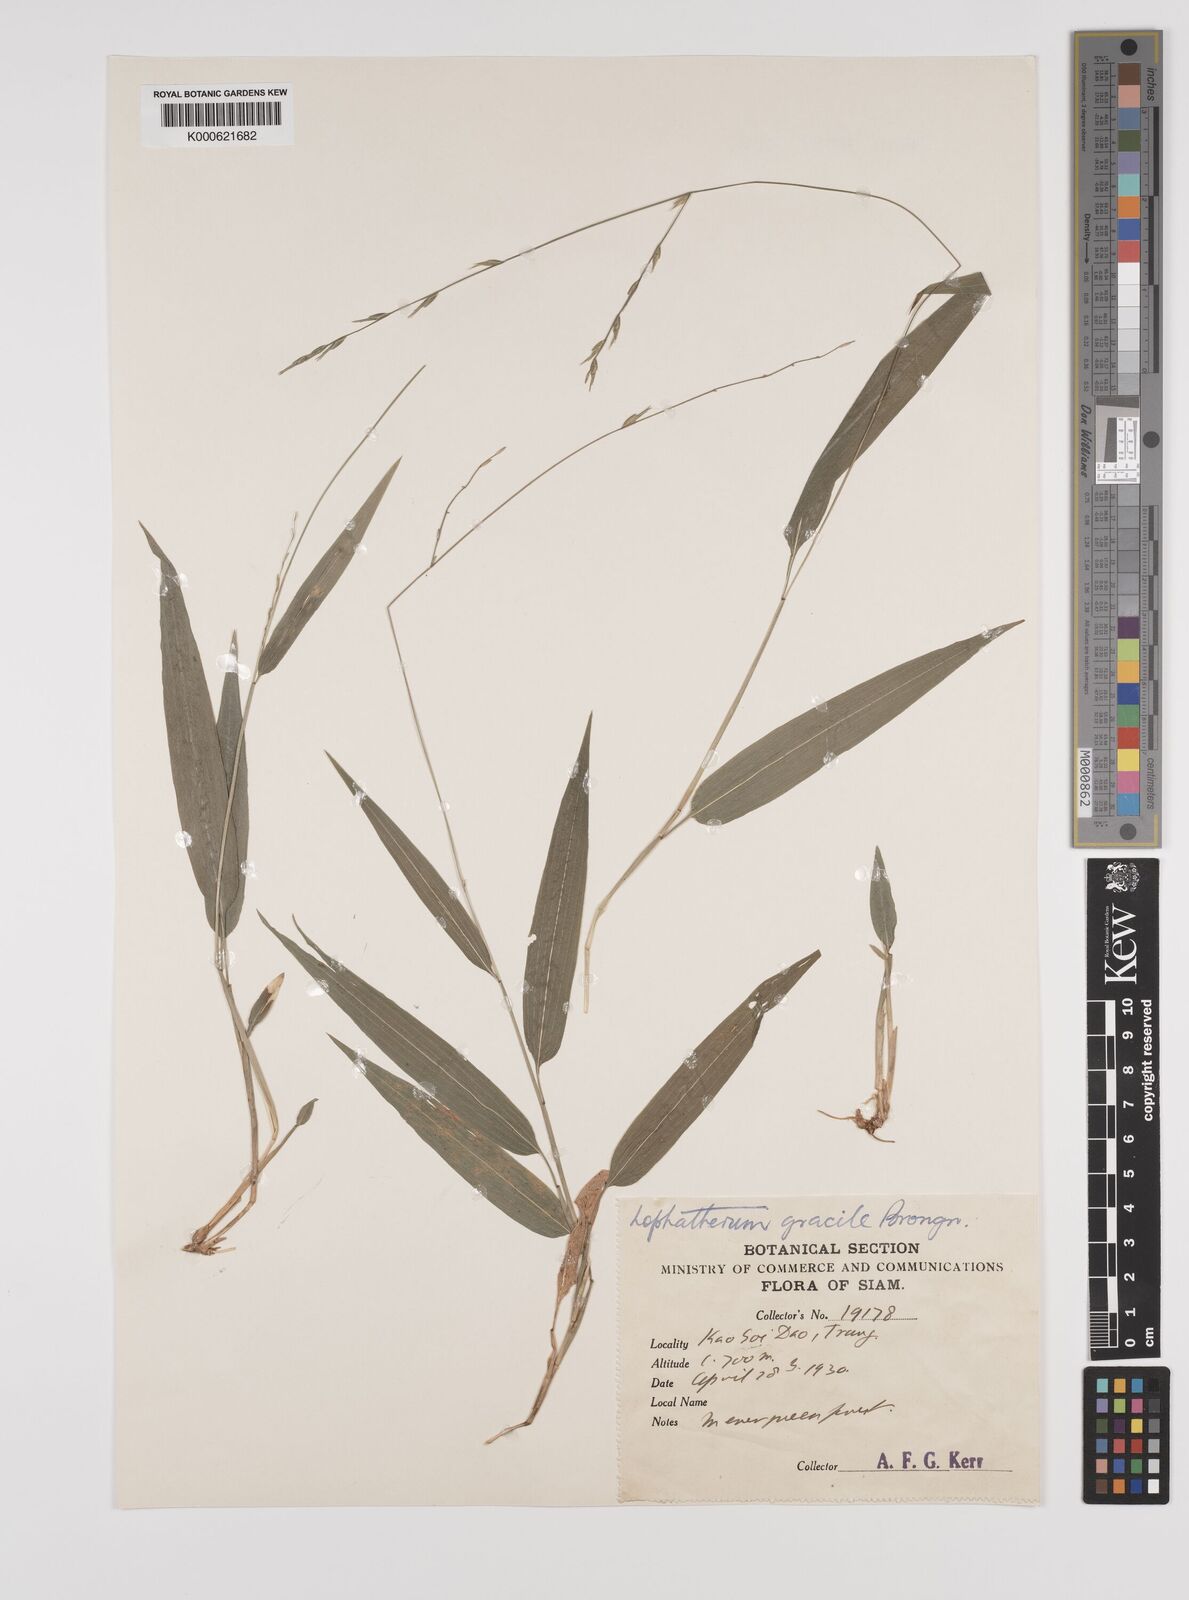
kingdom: Plantae
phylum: Tracheophyta
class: Liliopsida
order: Poales
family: Poaceae
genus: Lophatherum
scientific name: Lophatherum gracile
